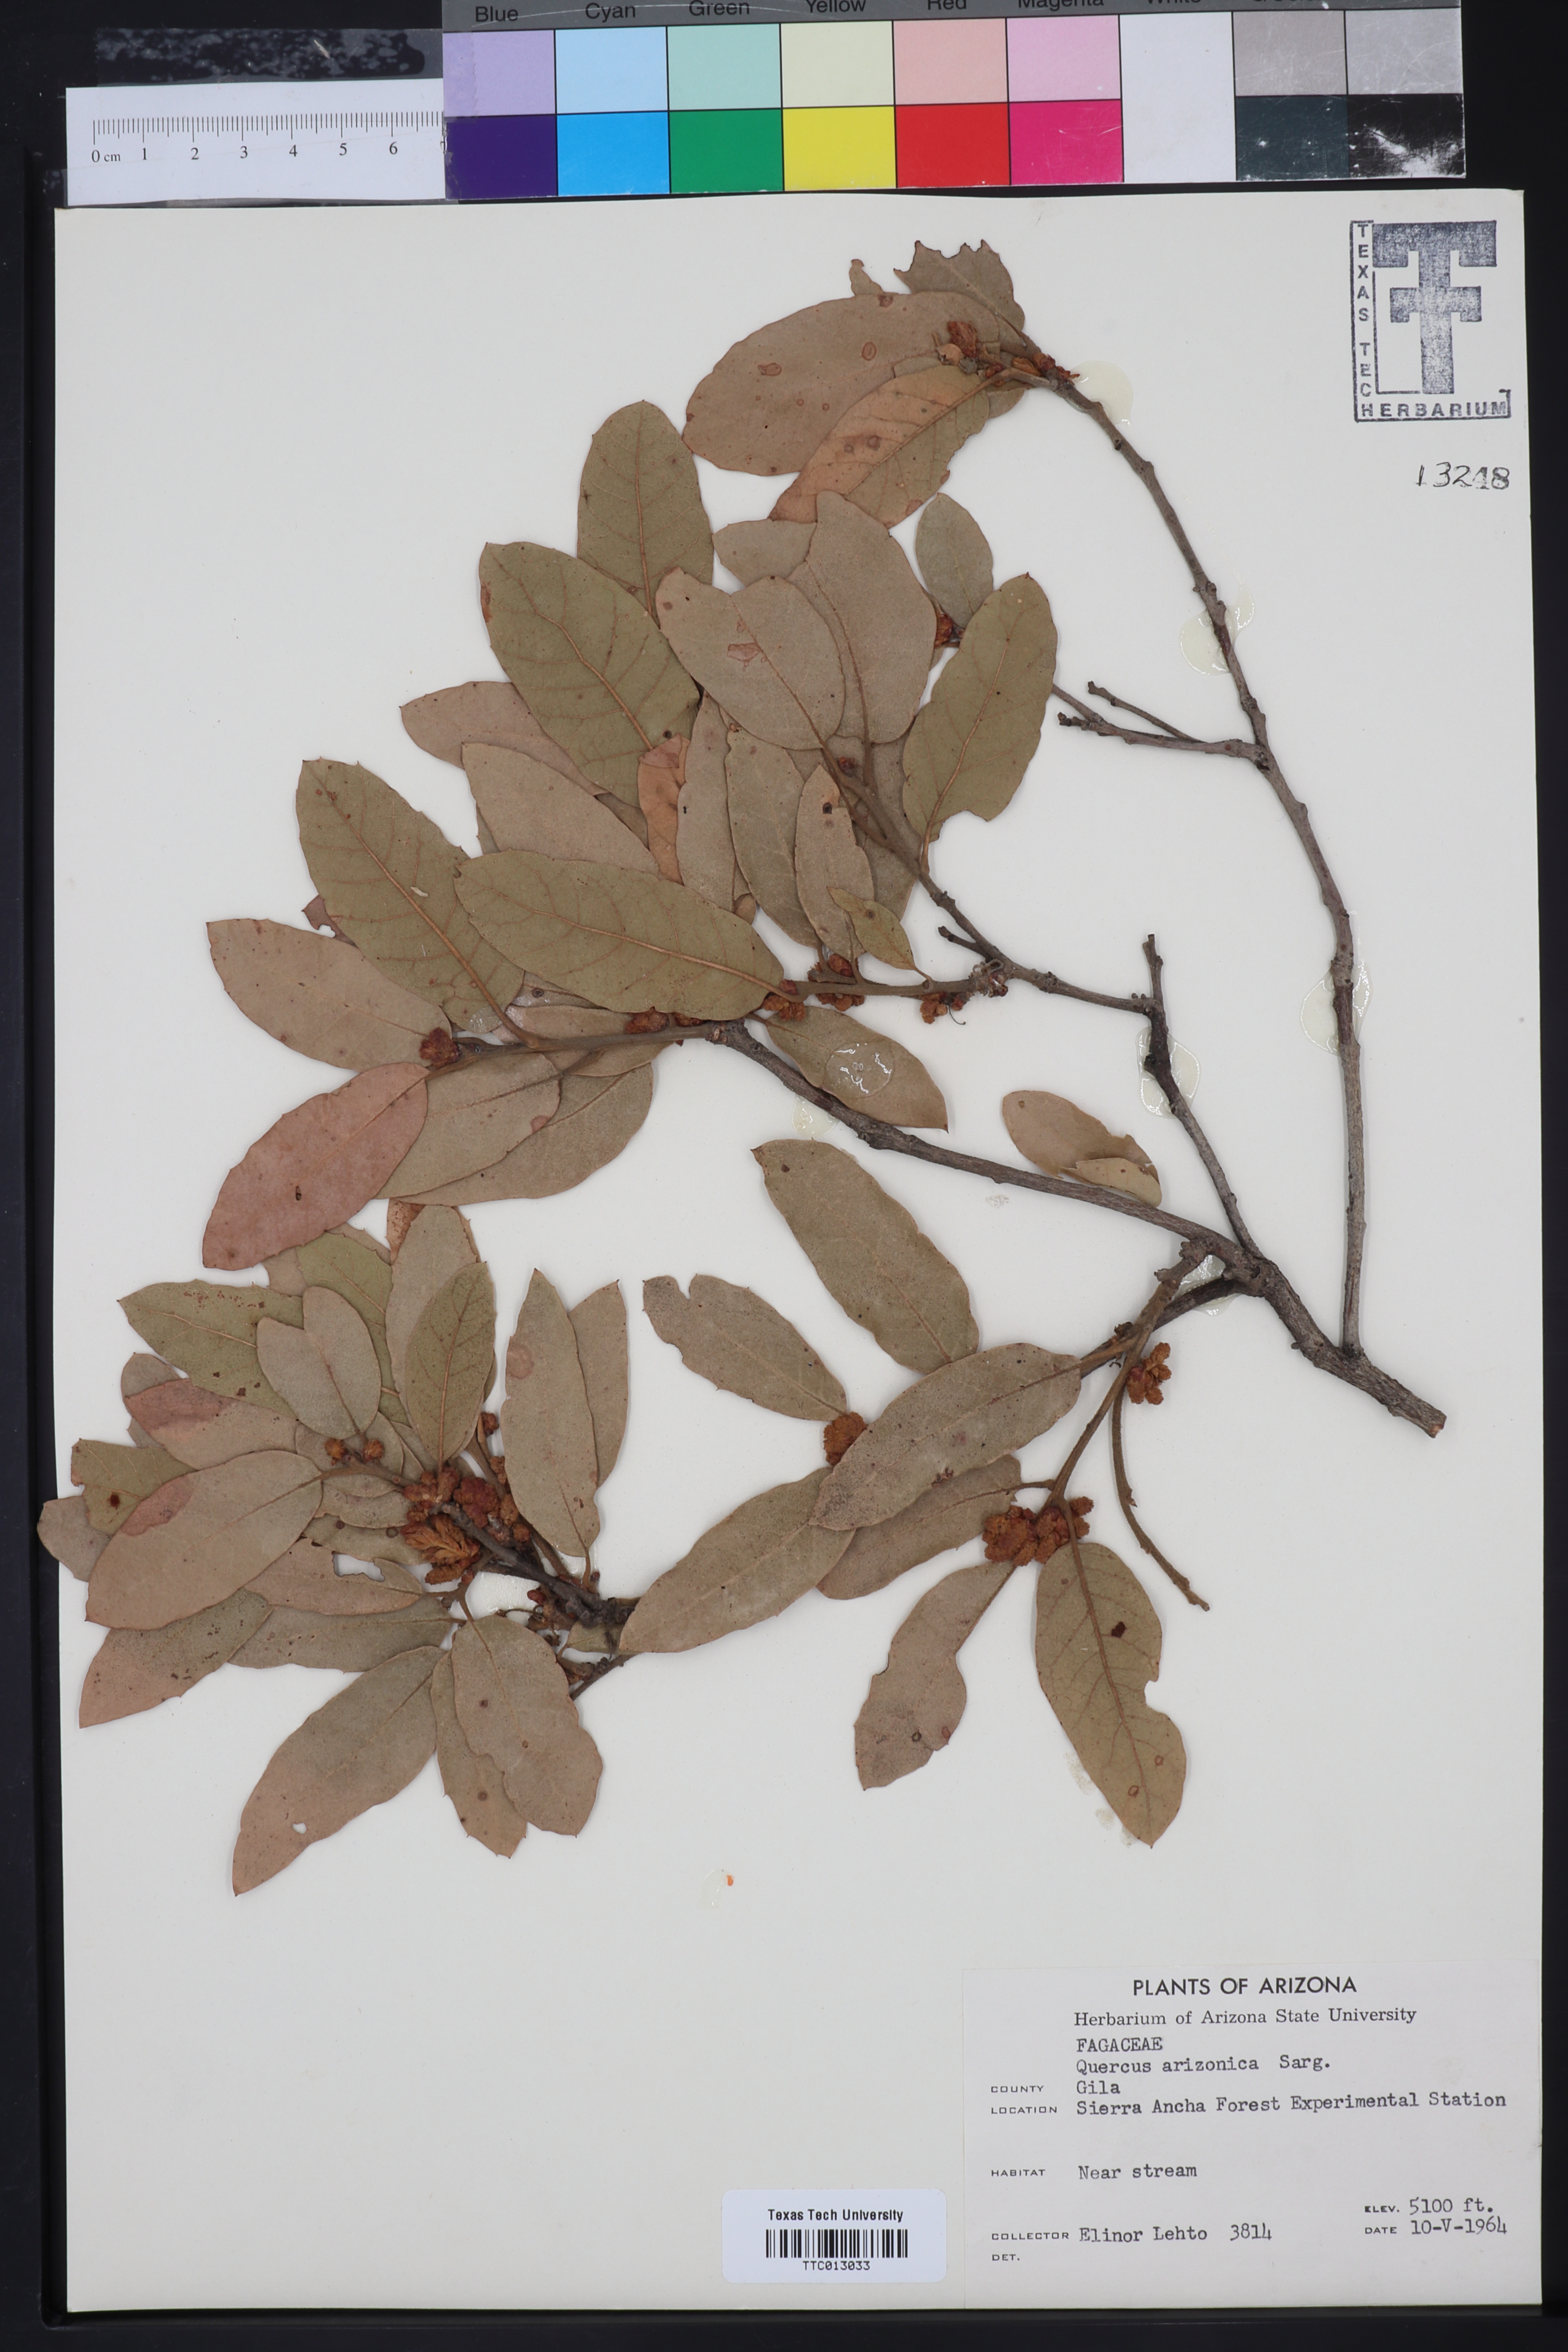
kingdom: Plantae
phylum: Tracheophyta
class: Magnoliopsida
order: Fagales
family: Fagaceae
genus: Quercus
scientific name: Quercus arizonica
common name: Arizona white oak
